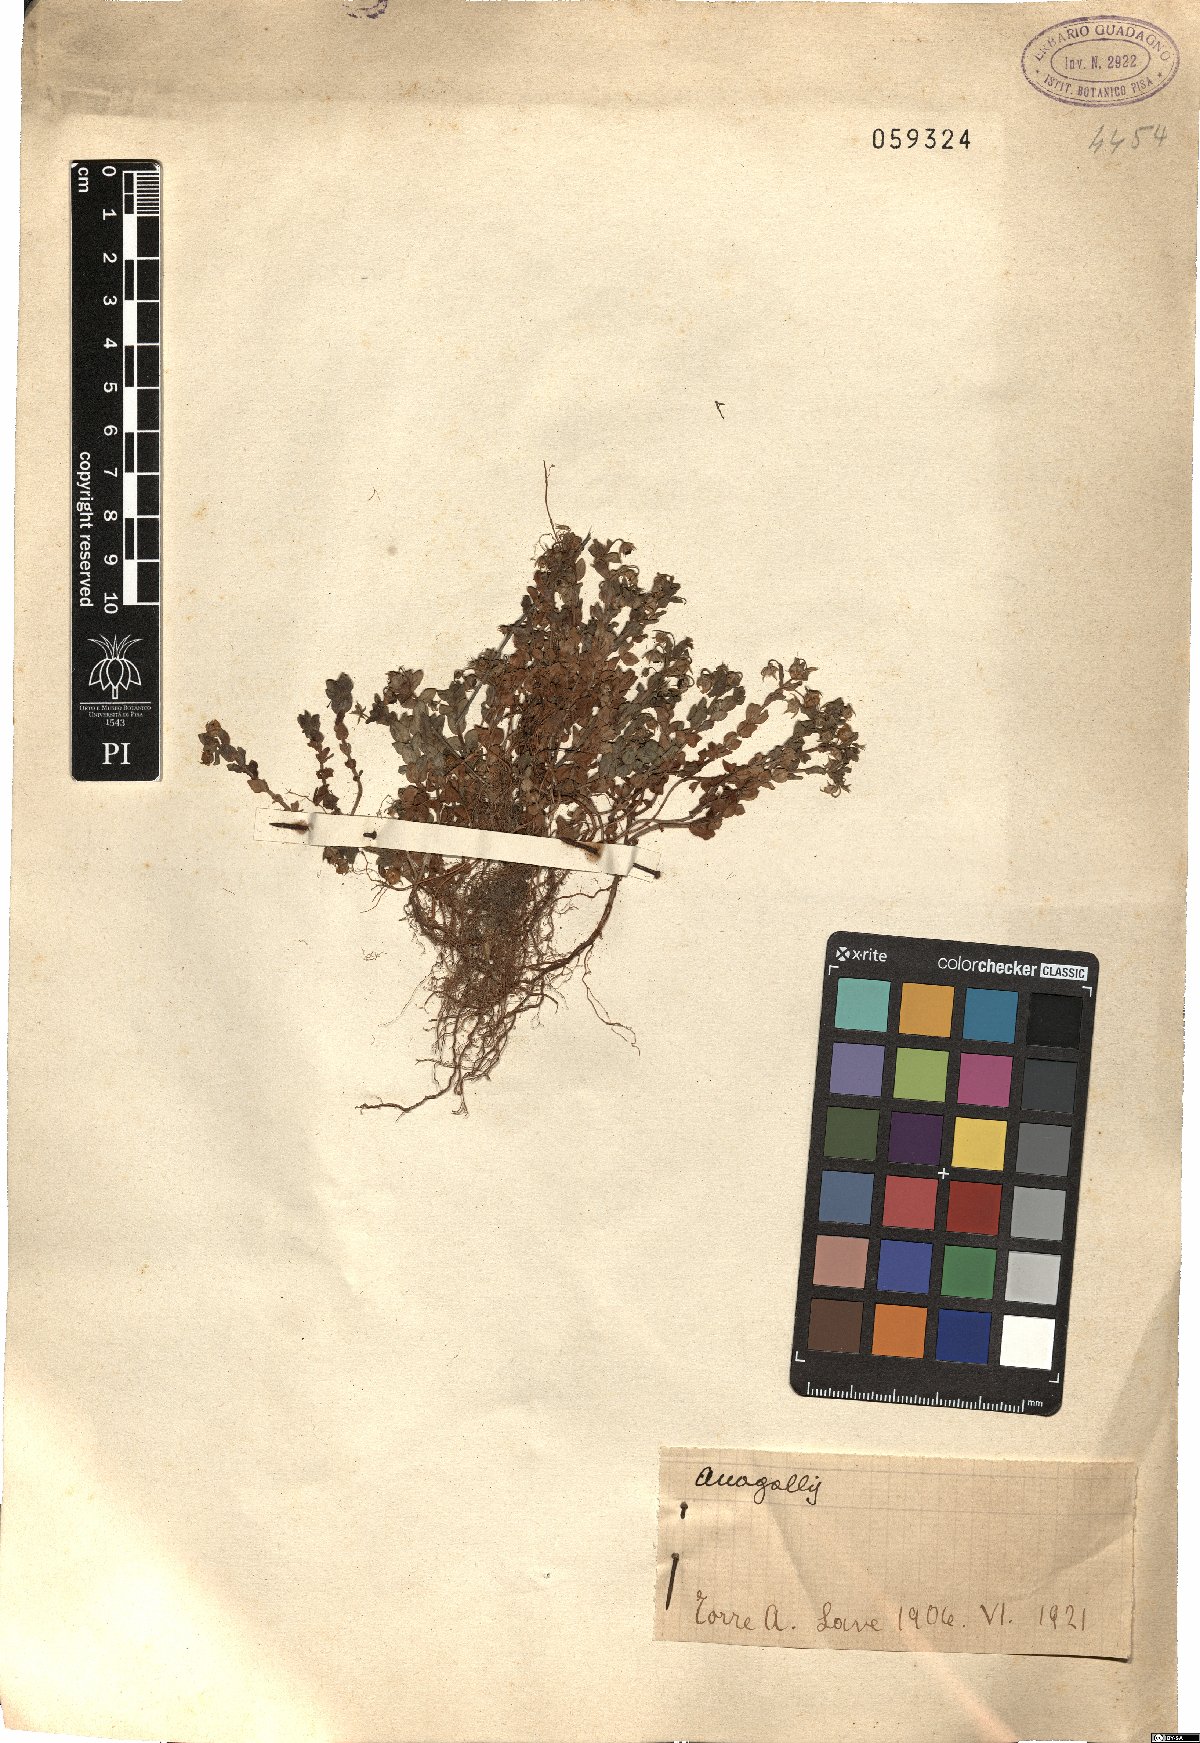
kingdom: Plantae
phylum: Tracheophyta
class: Magnoliopsida
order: Ericales
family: Primulaceae
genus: Lysimachia
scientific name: Lysimachia Anagallis spec
